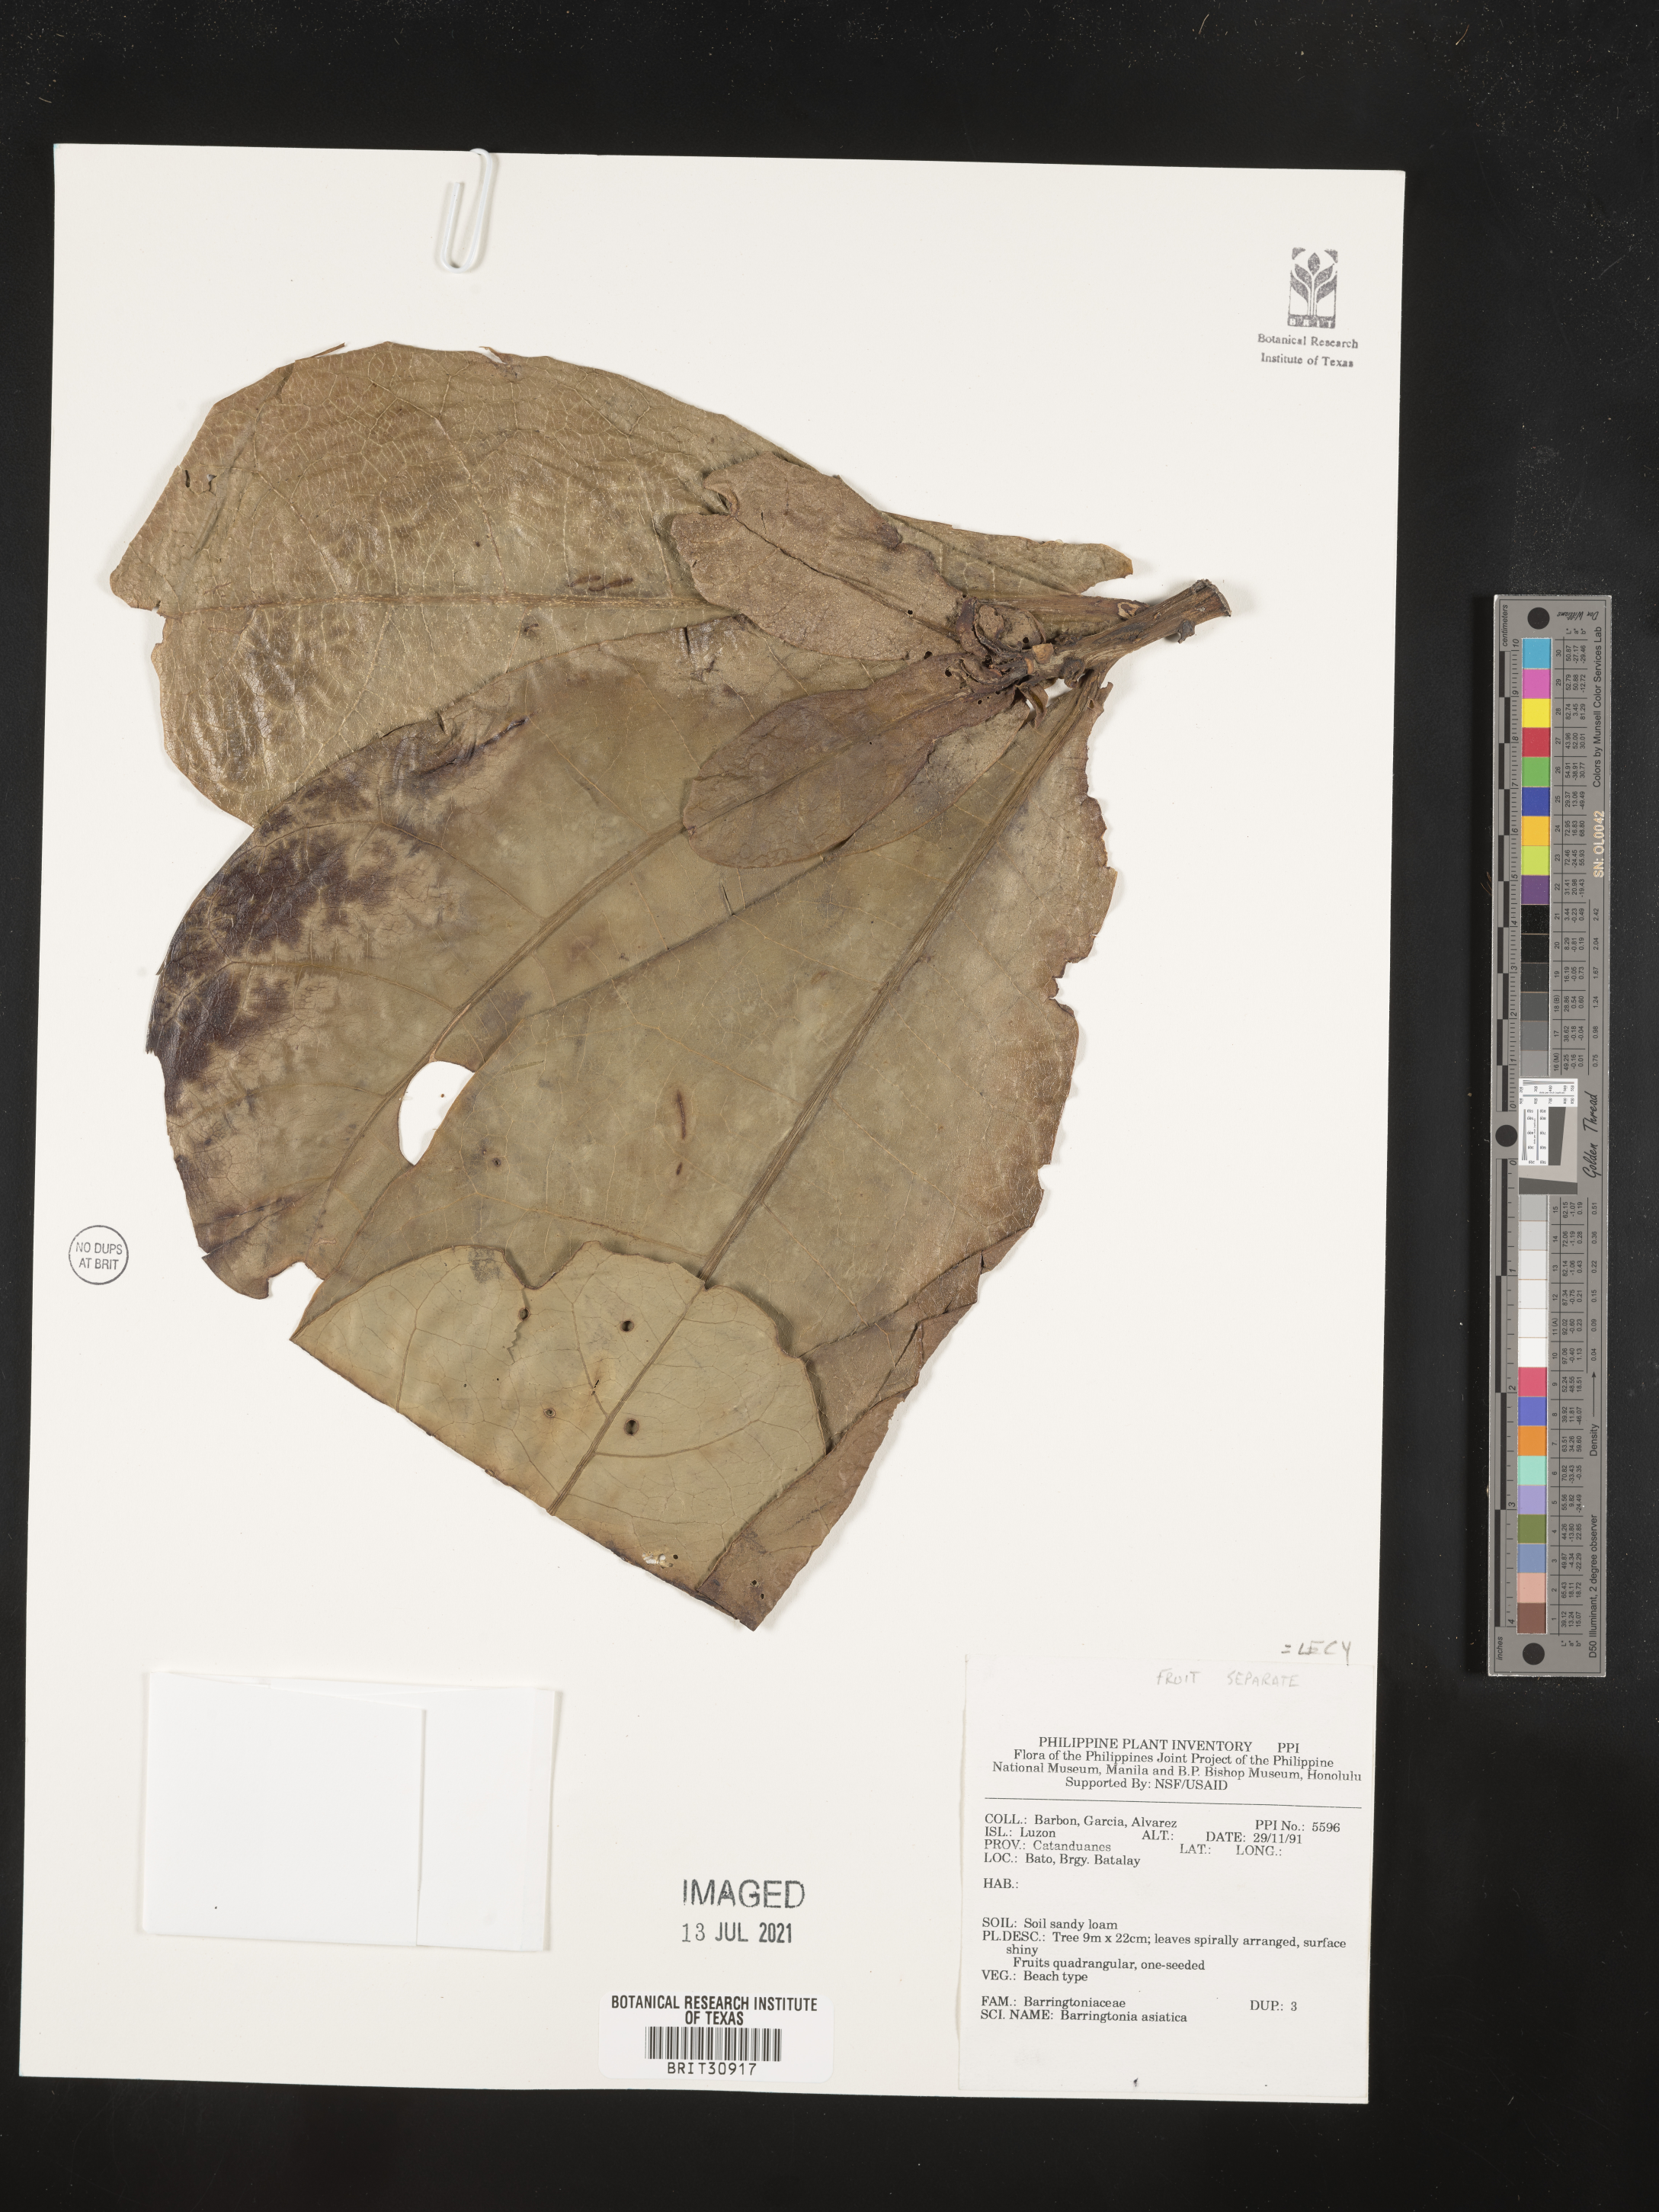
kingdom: Plantae
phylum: Tracheophyta
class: Magnoliopsida
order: Ericales
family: Lecythidaceae
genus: Barringtonia
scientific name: Barringtonia asiatica
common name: Mango-pine
